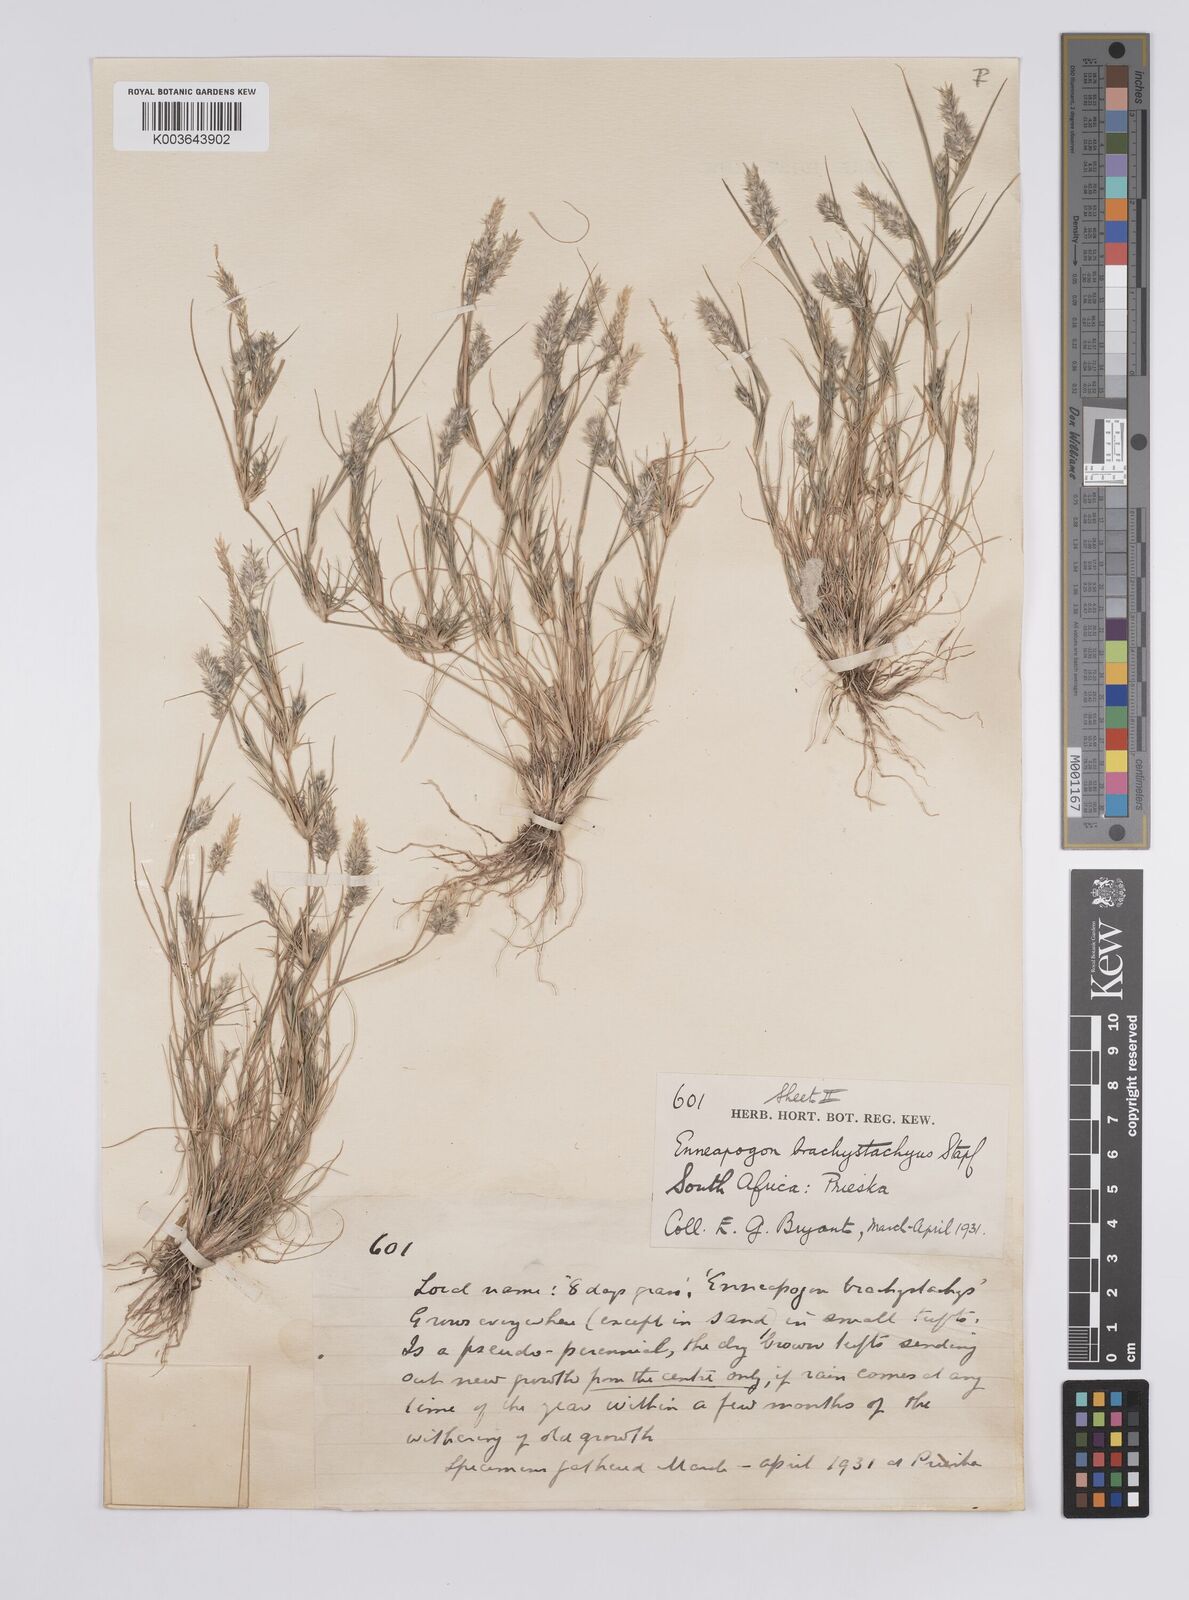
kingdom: Plantae
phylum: Tracheophyta
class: Liliopsida
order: Poales
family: Poaceae
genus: Enneapogon
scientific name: Enneapogon desvauxii
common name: Feather pappus grass
